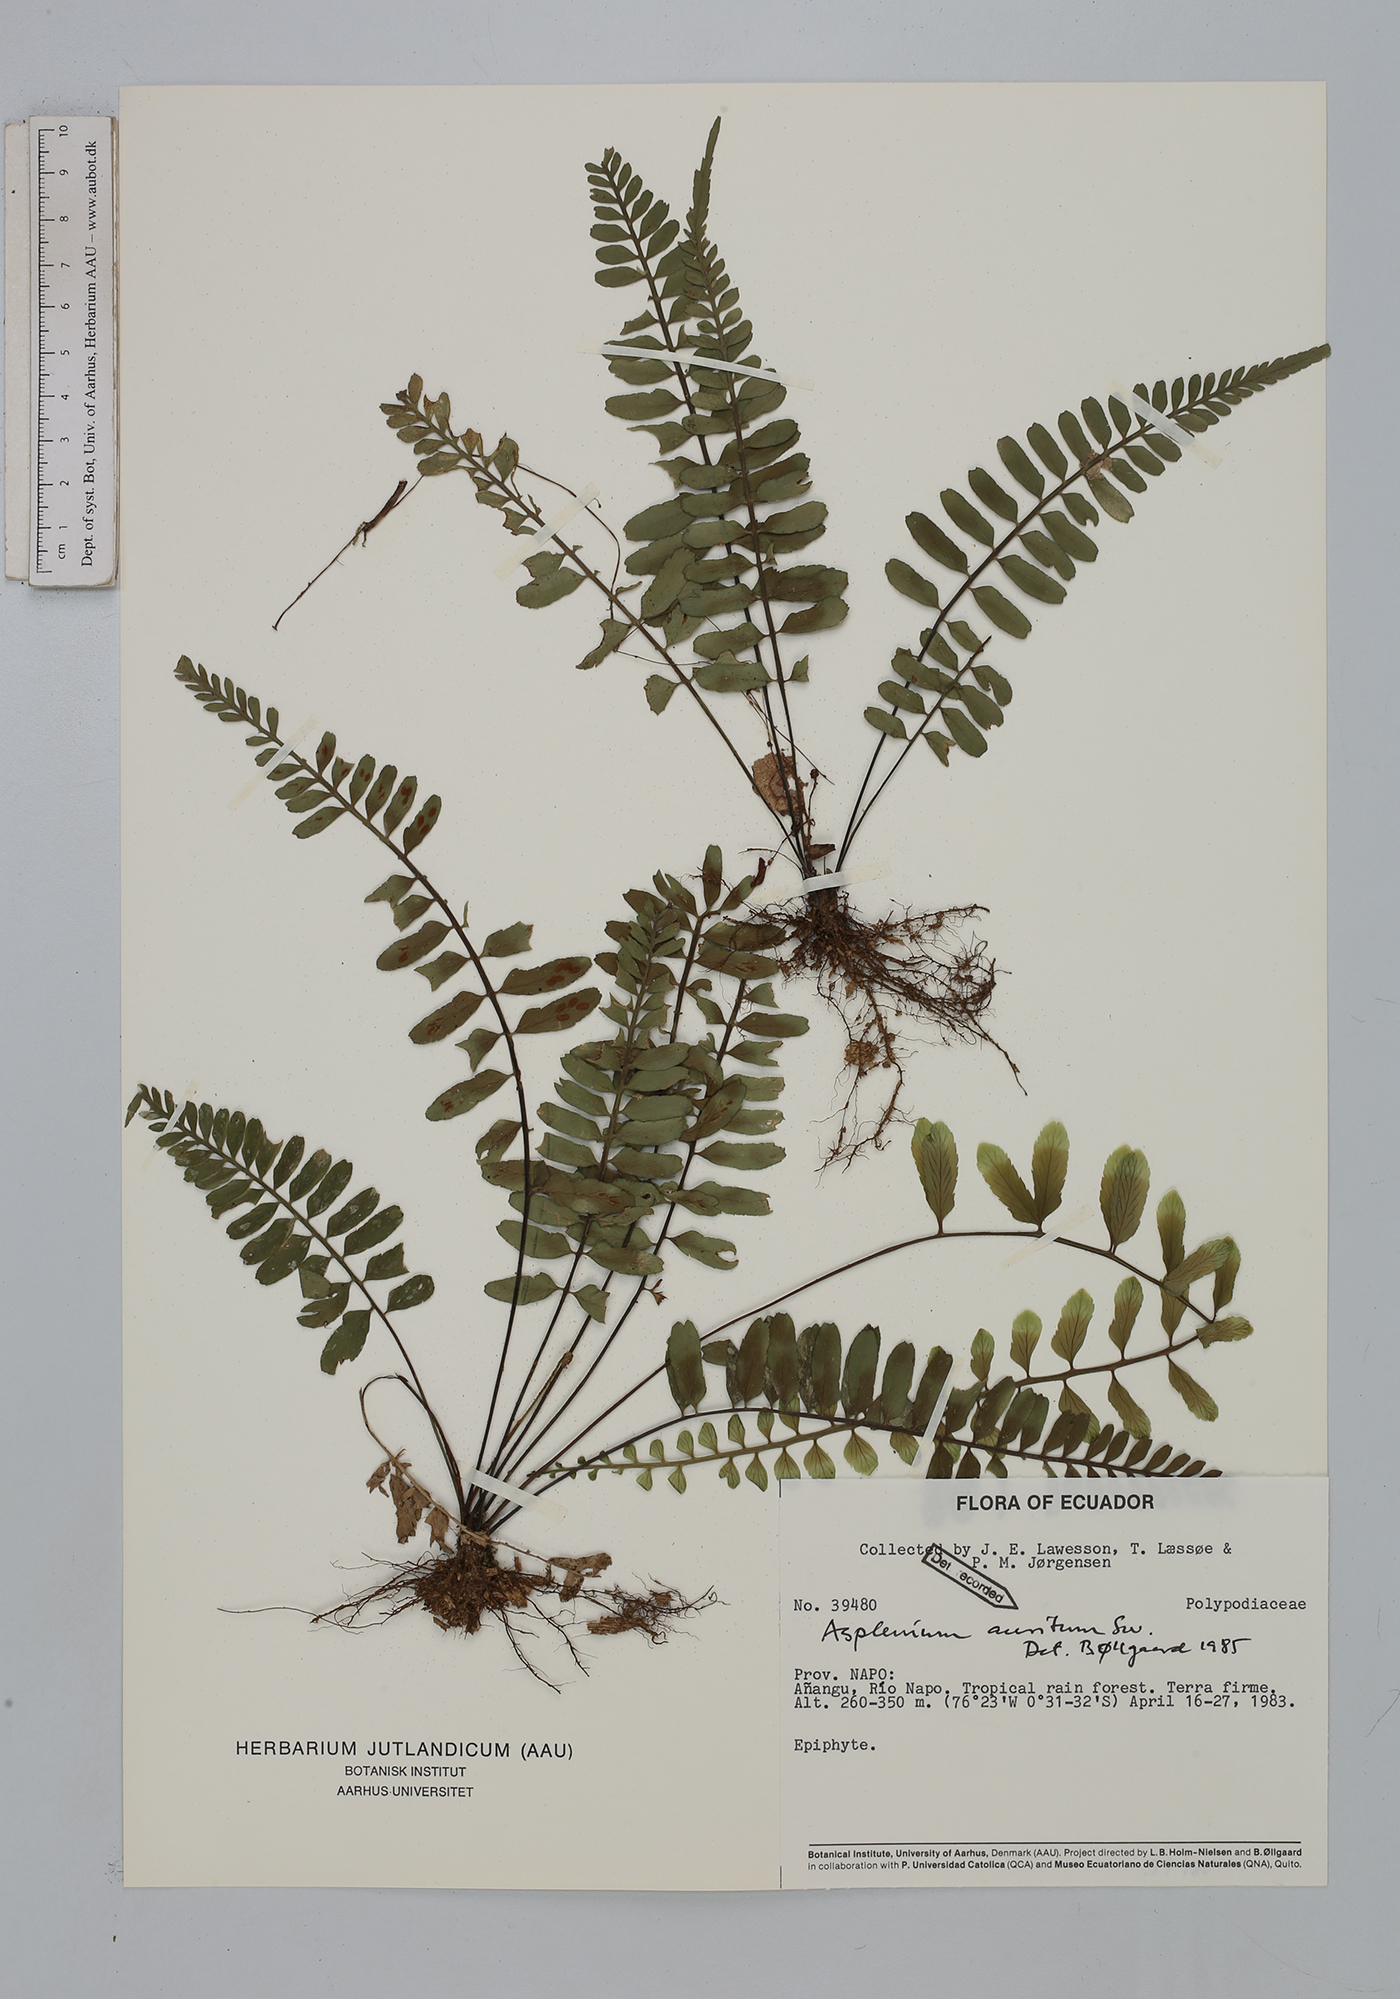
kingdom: Plantae
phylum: Tracheophyta
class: Polypodiopsida
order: Polypodiales
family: Aspleniaceae
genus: Asplenium
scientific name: Asplenium auritum
